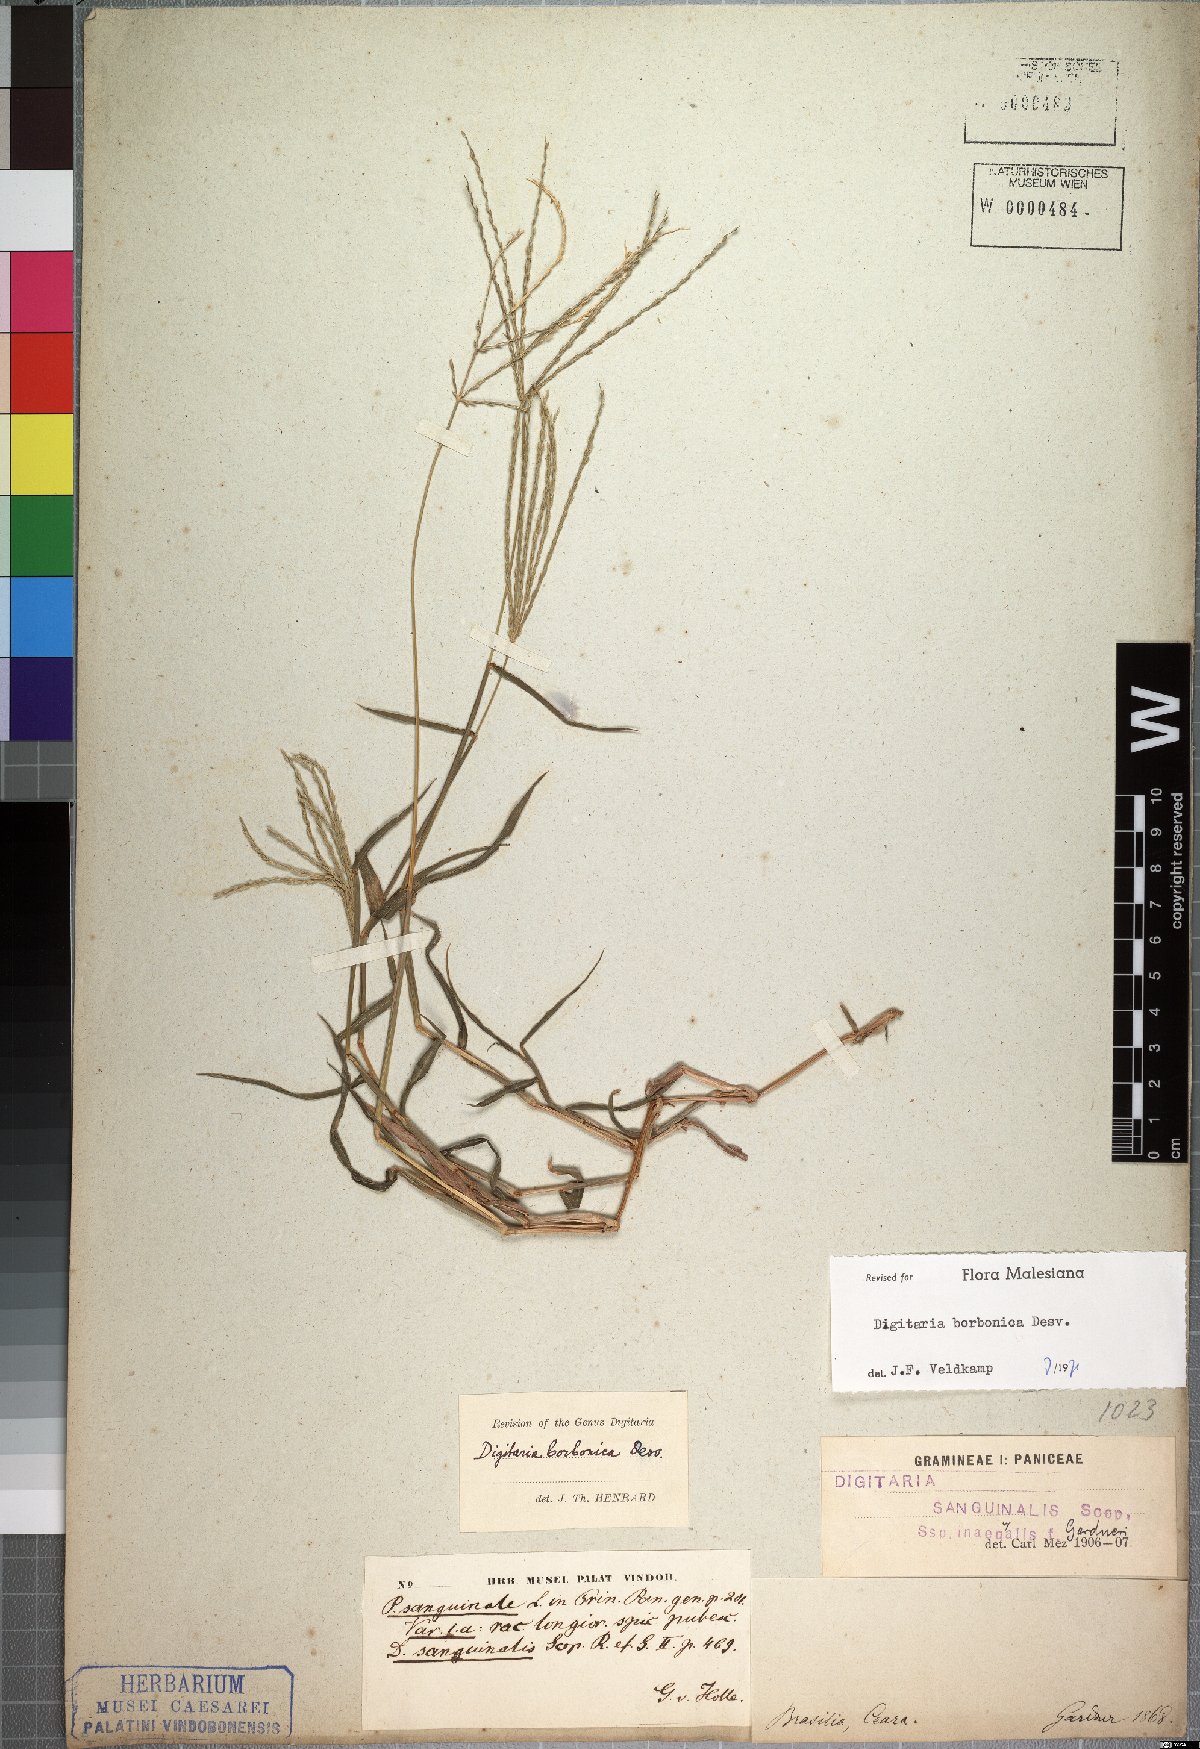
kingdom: Plantae
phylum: Tracheophyta
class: Liliopsida
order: Poales
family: Poaceae
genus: Digitaria
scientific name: Digitaria nuda
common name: Naked crabgrass
